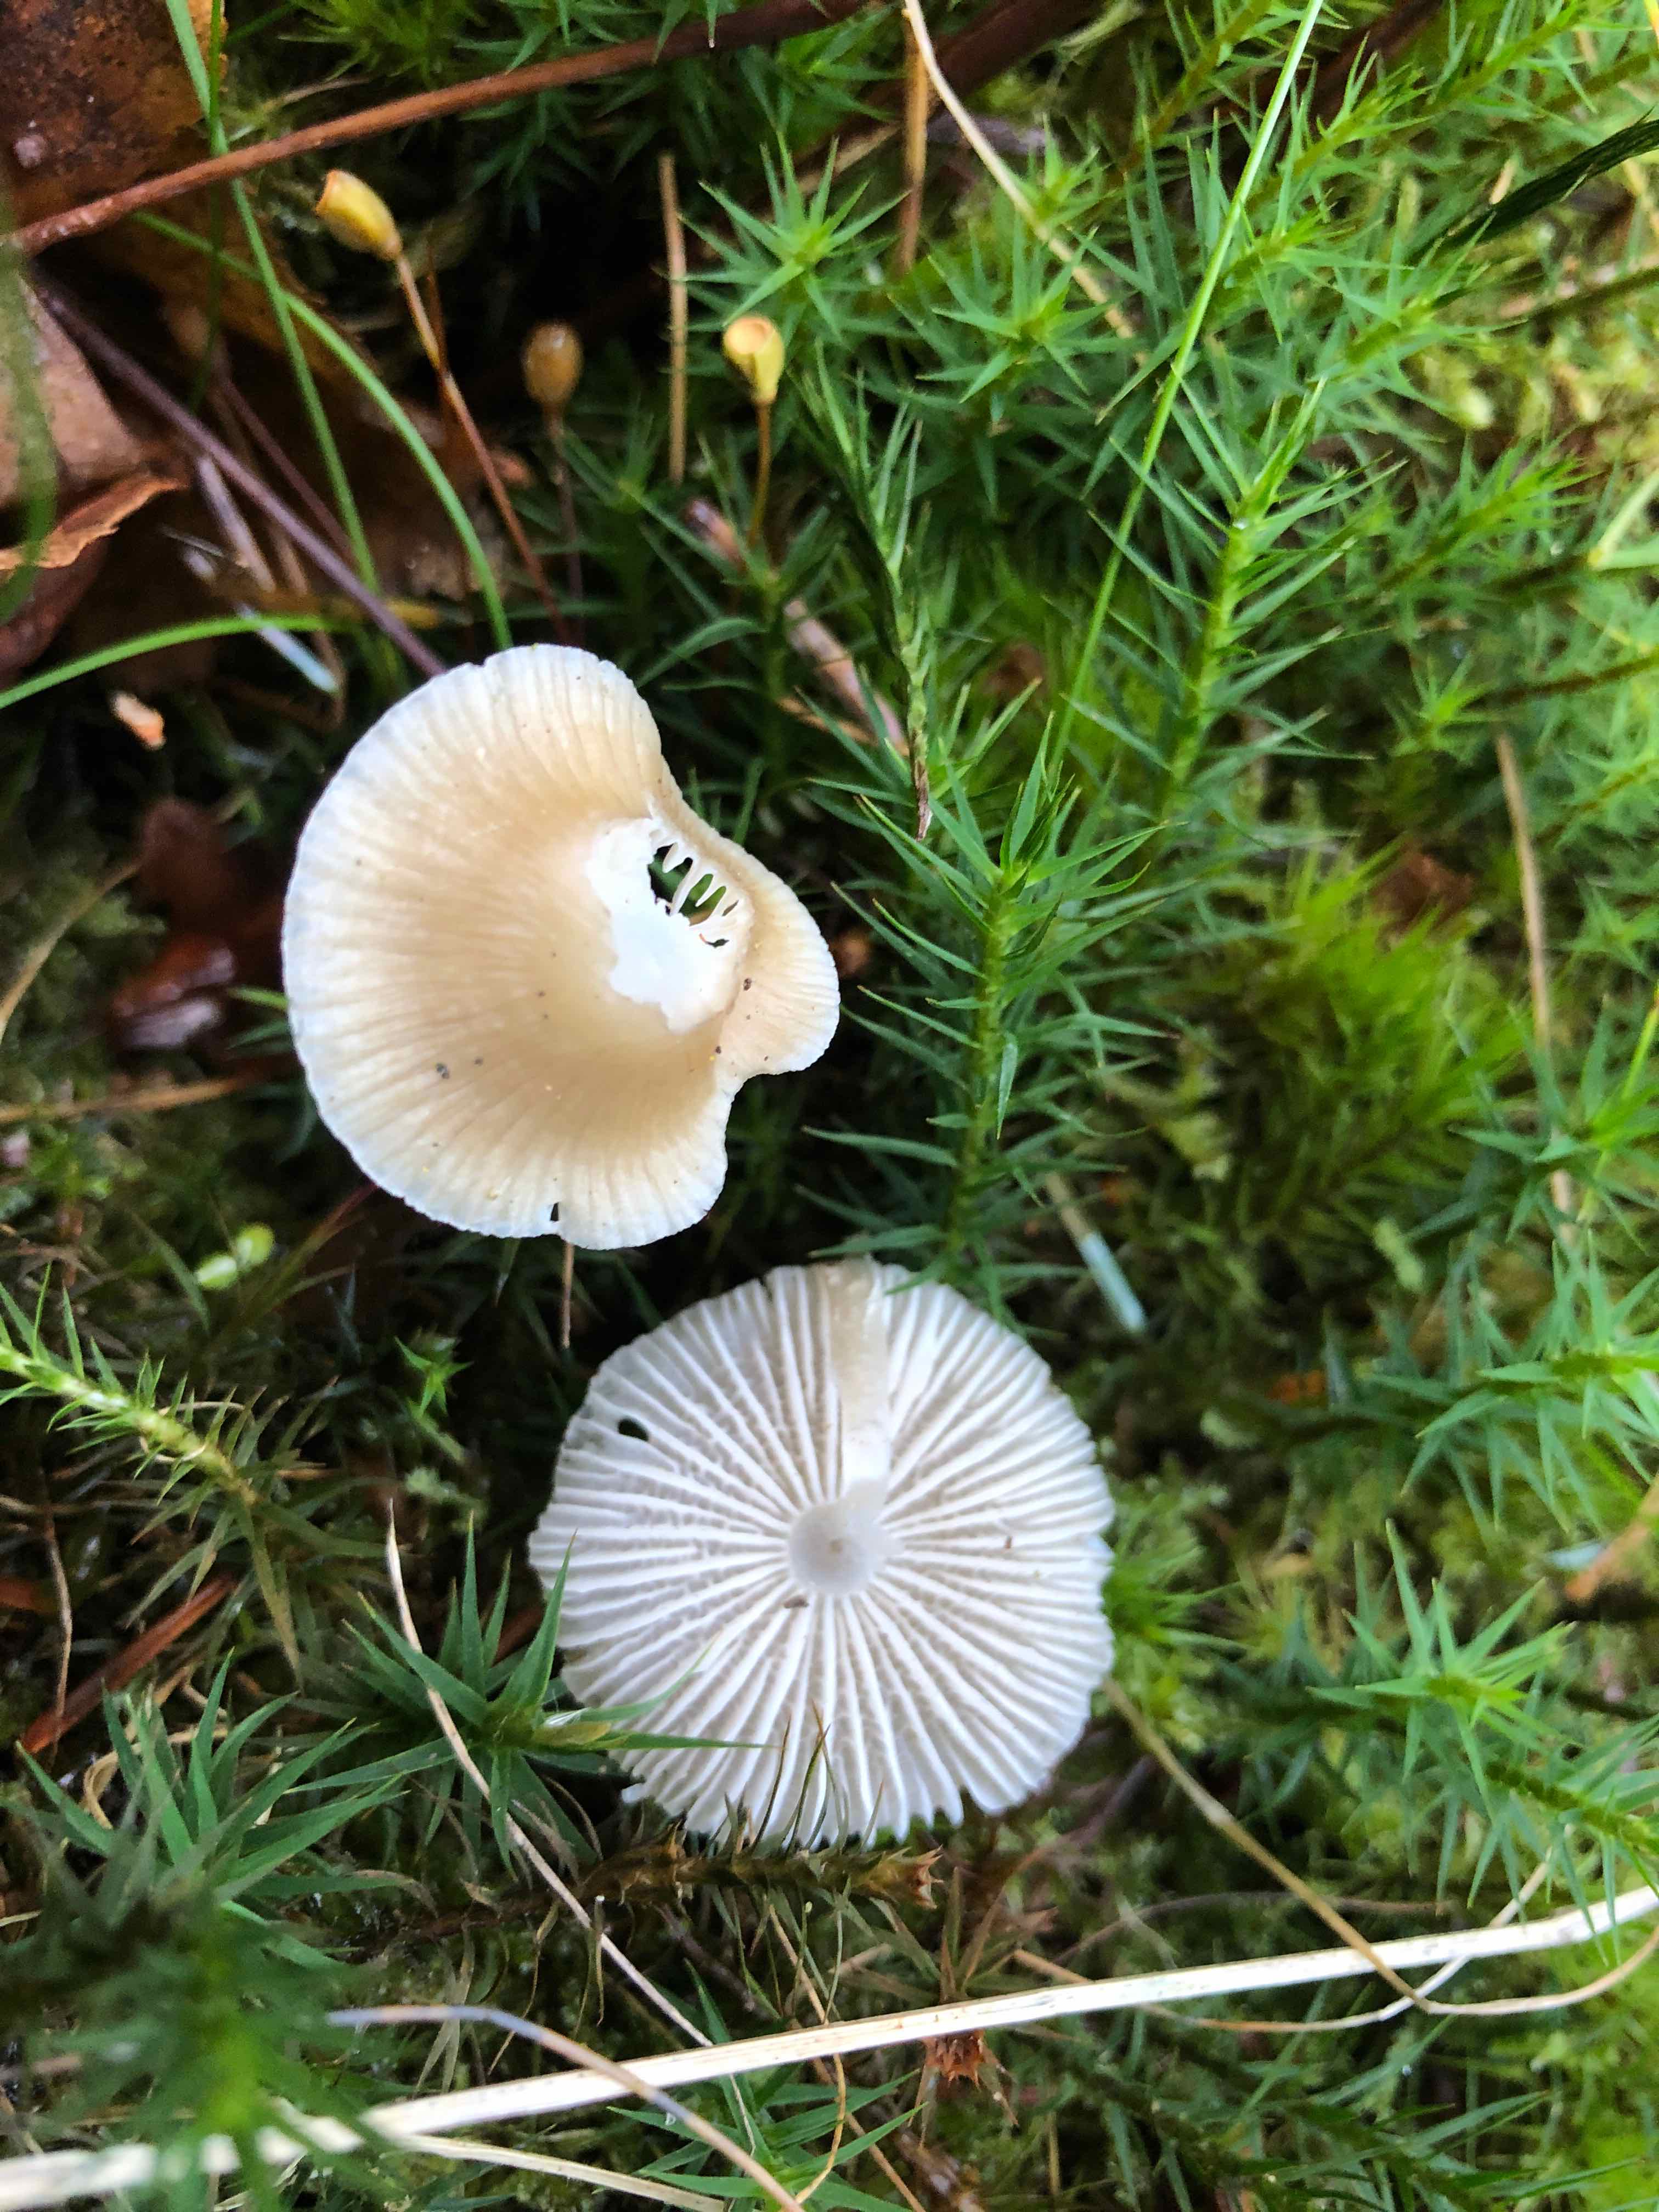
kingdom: Fungi
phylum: Basidiomycota
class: Agaricomycetes
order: Agaricales
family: Mycenaceae
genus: Mycena
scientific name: Mycena galericulata
